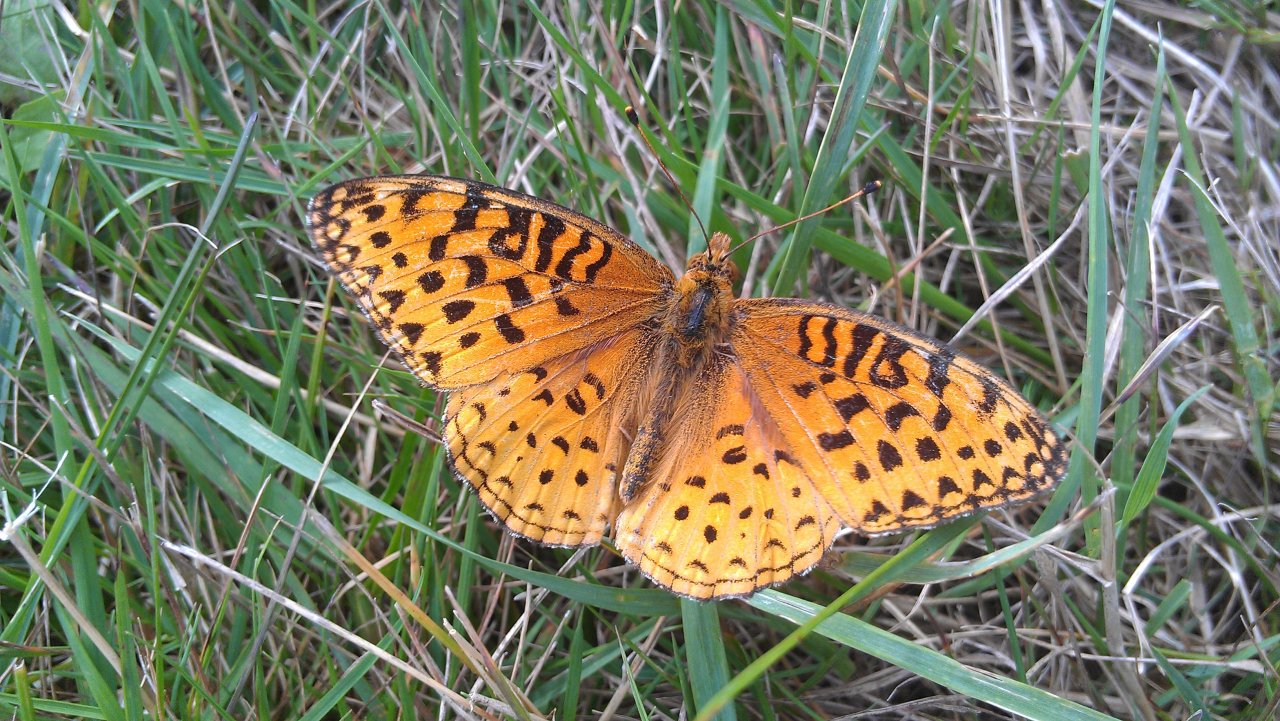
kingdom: Animalia
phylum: Arthropoda
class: Insecta
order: Lepidoptera
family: Nymphalidae
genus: Speyeria
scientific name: Speyeria aphrodite
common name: Aphrodite Fritillary
